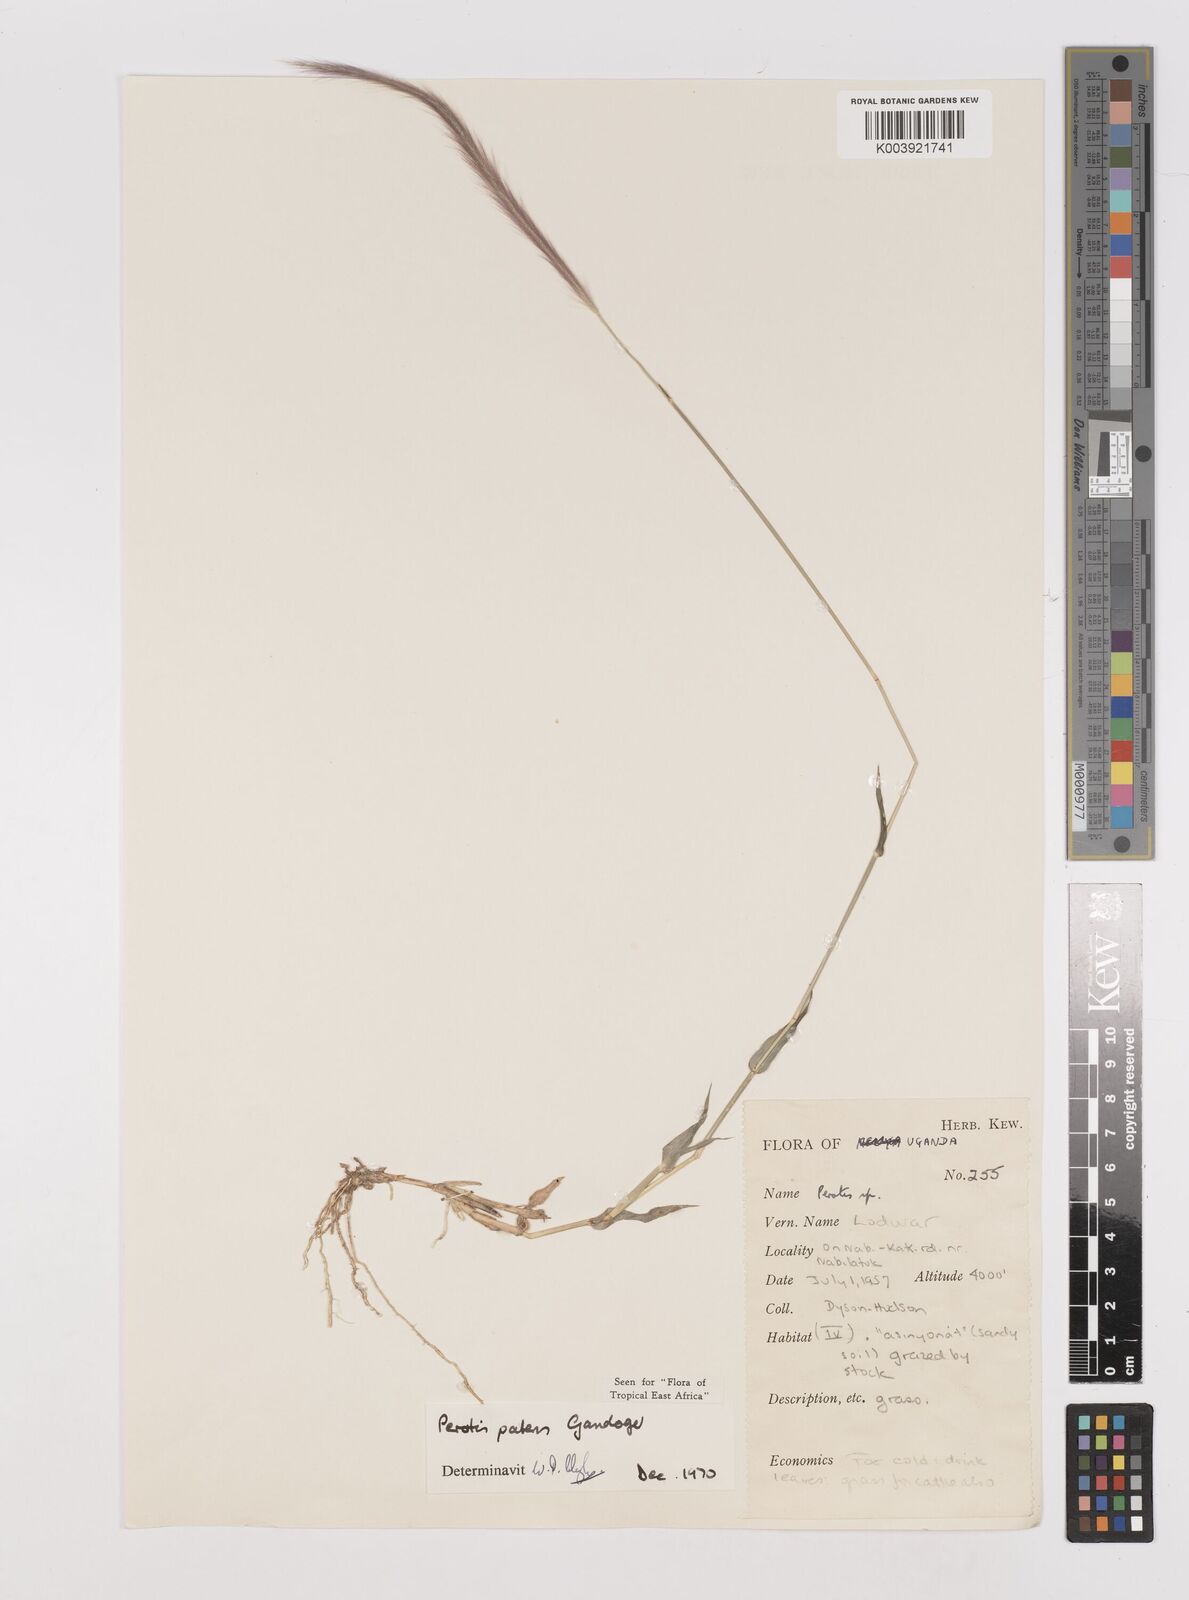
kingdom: Plantae
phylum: Tracheophyta
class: Liliopsida
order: Poales
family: Poaceae
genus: Perotis
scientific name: Perotis patens
